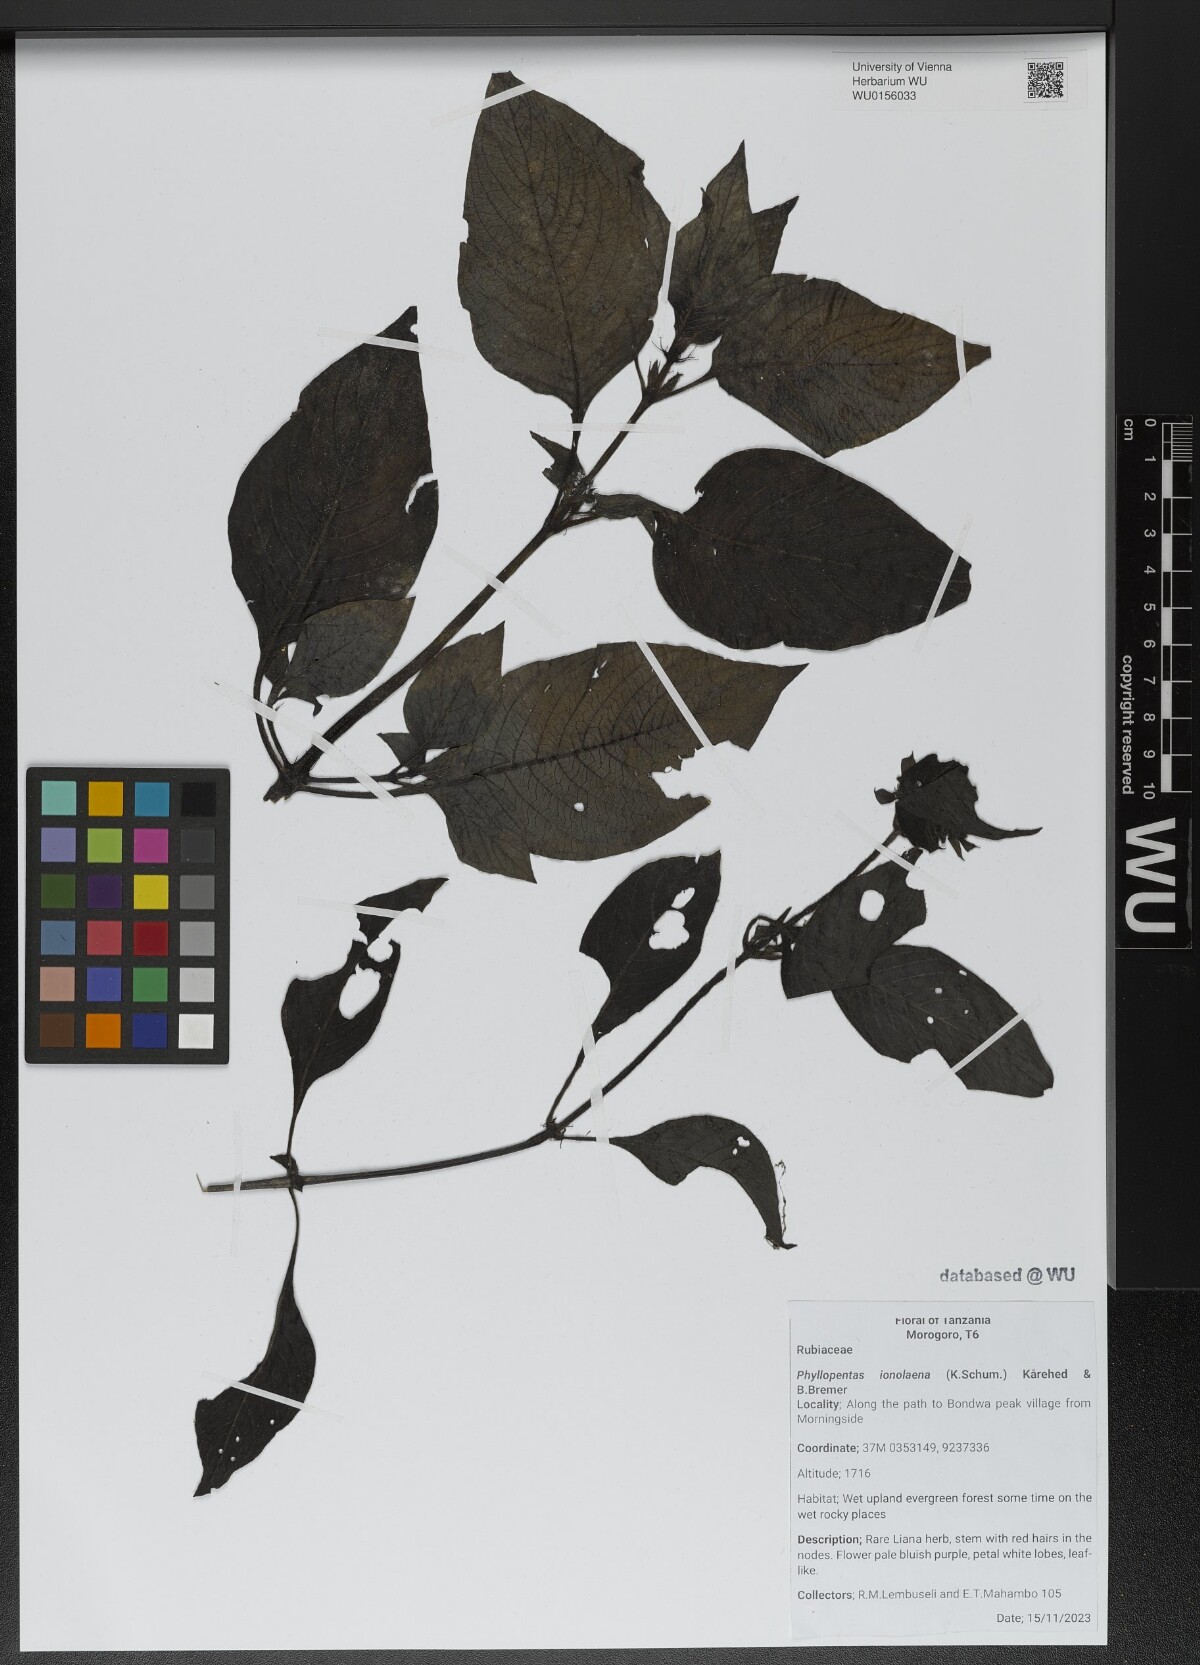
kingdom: Plantae
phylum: Tracheophyta
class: Magnoliopsida
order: Gentianales
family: Rubiaceae
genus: Phyllopentas
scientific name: Phyllopentas ionolaena
